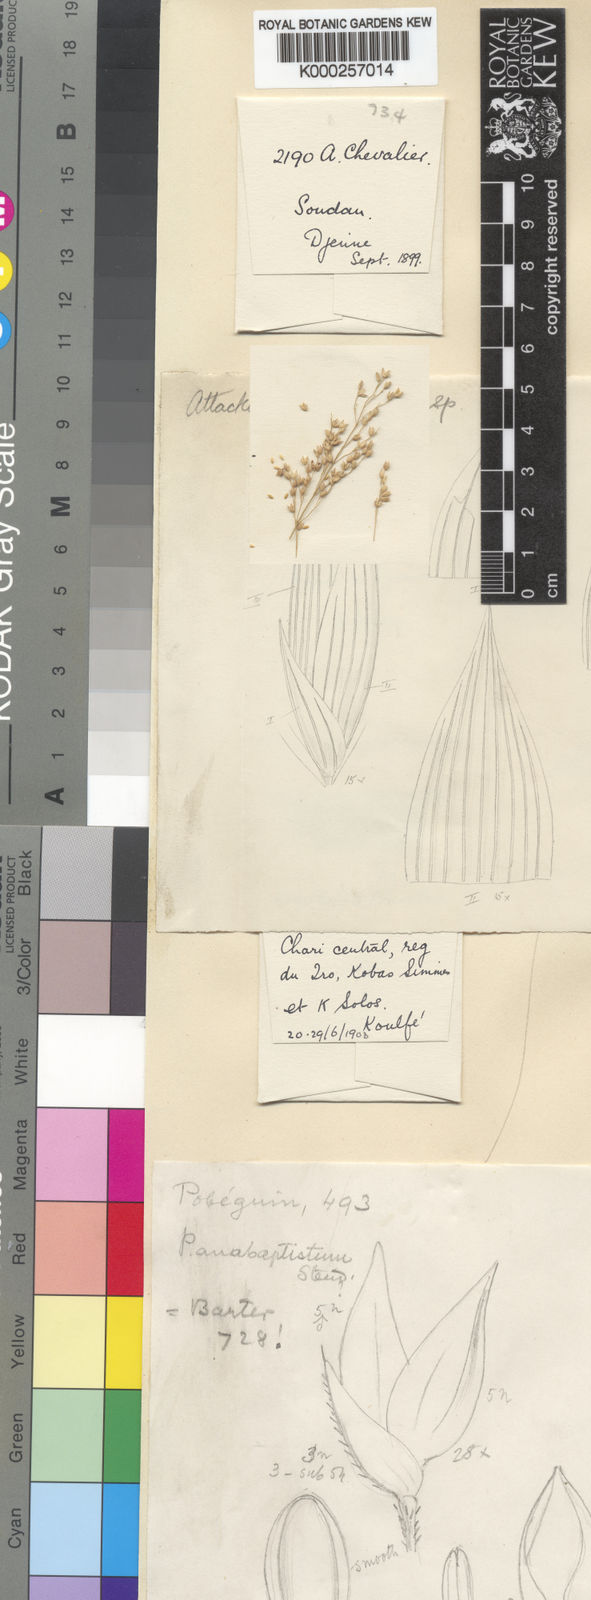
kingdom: Plantae
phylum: Tracheophyta
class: Liliopsida
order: Poales
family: Poaceae
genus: Panicum
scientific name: Panicum fluviicola
